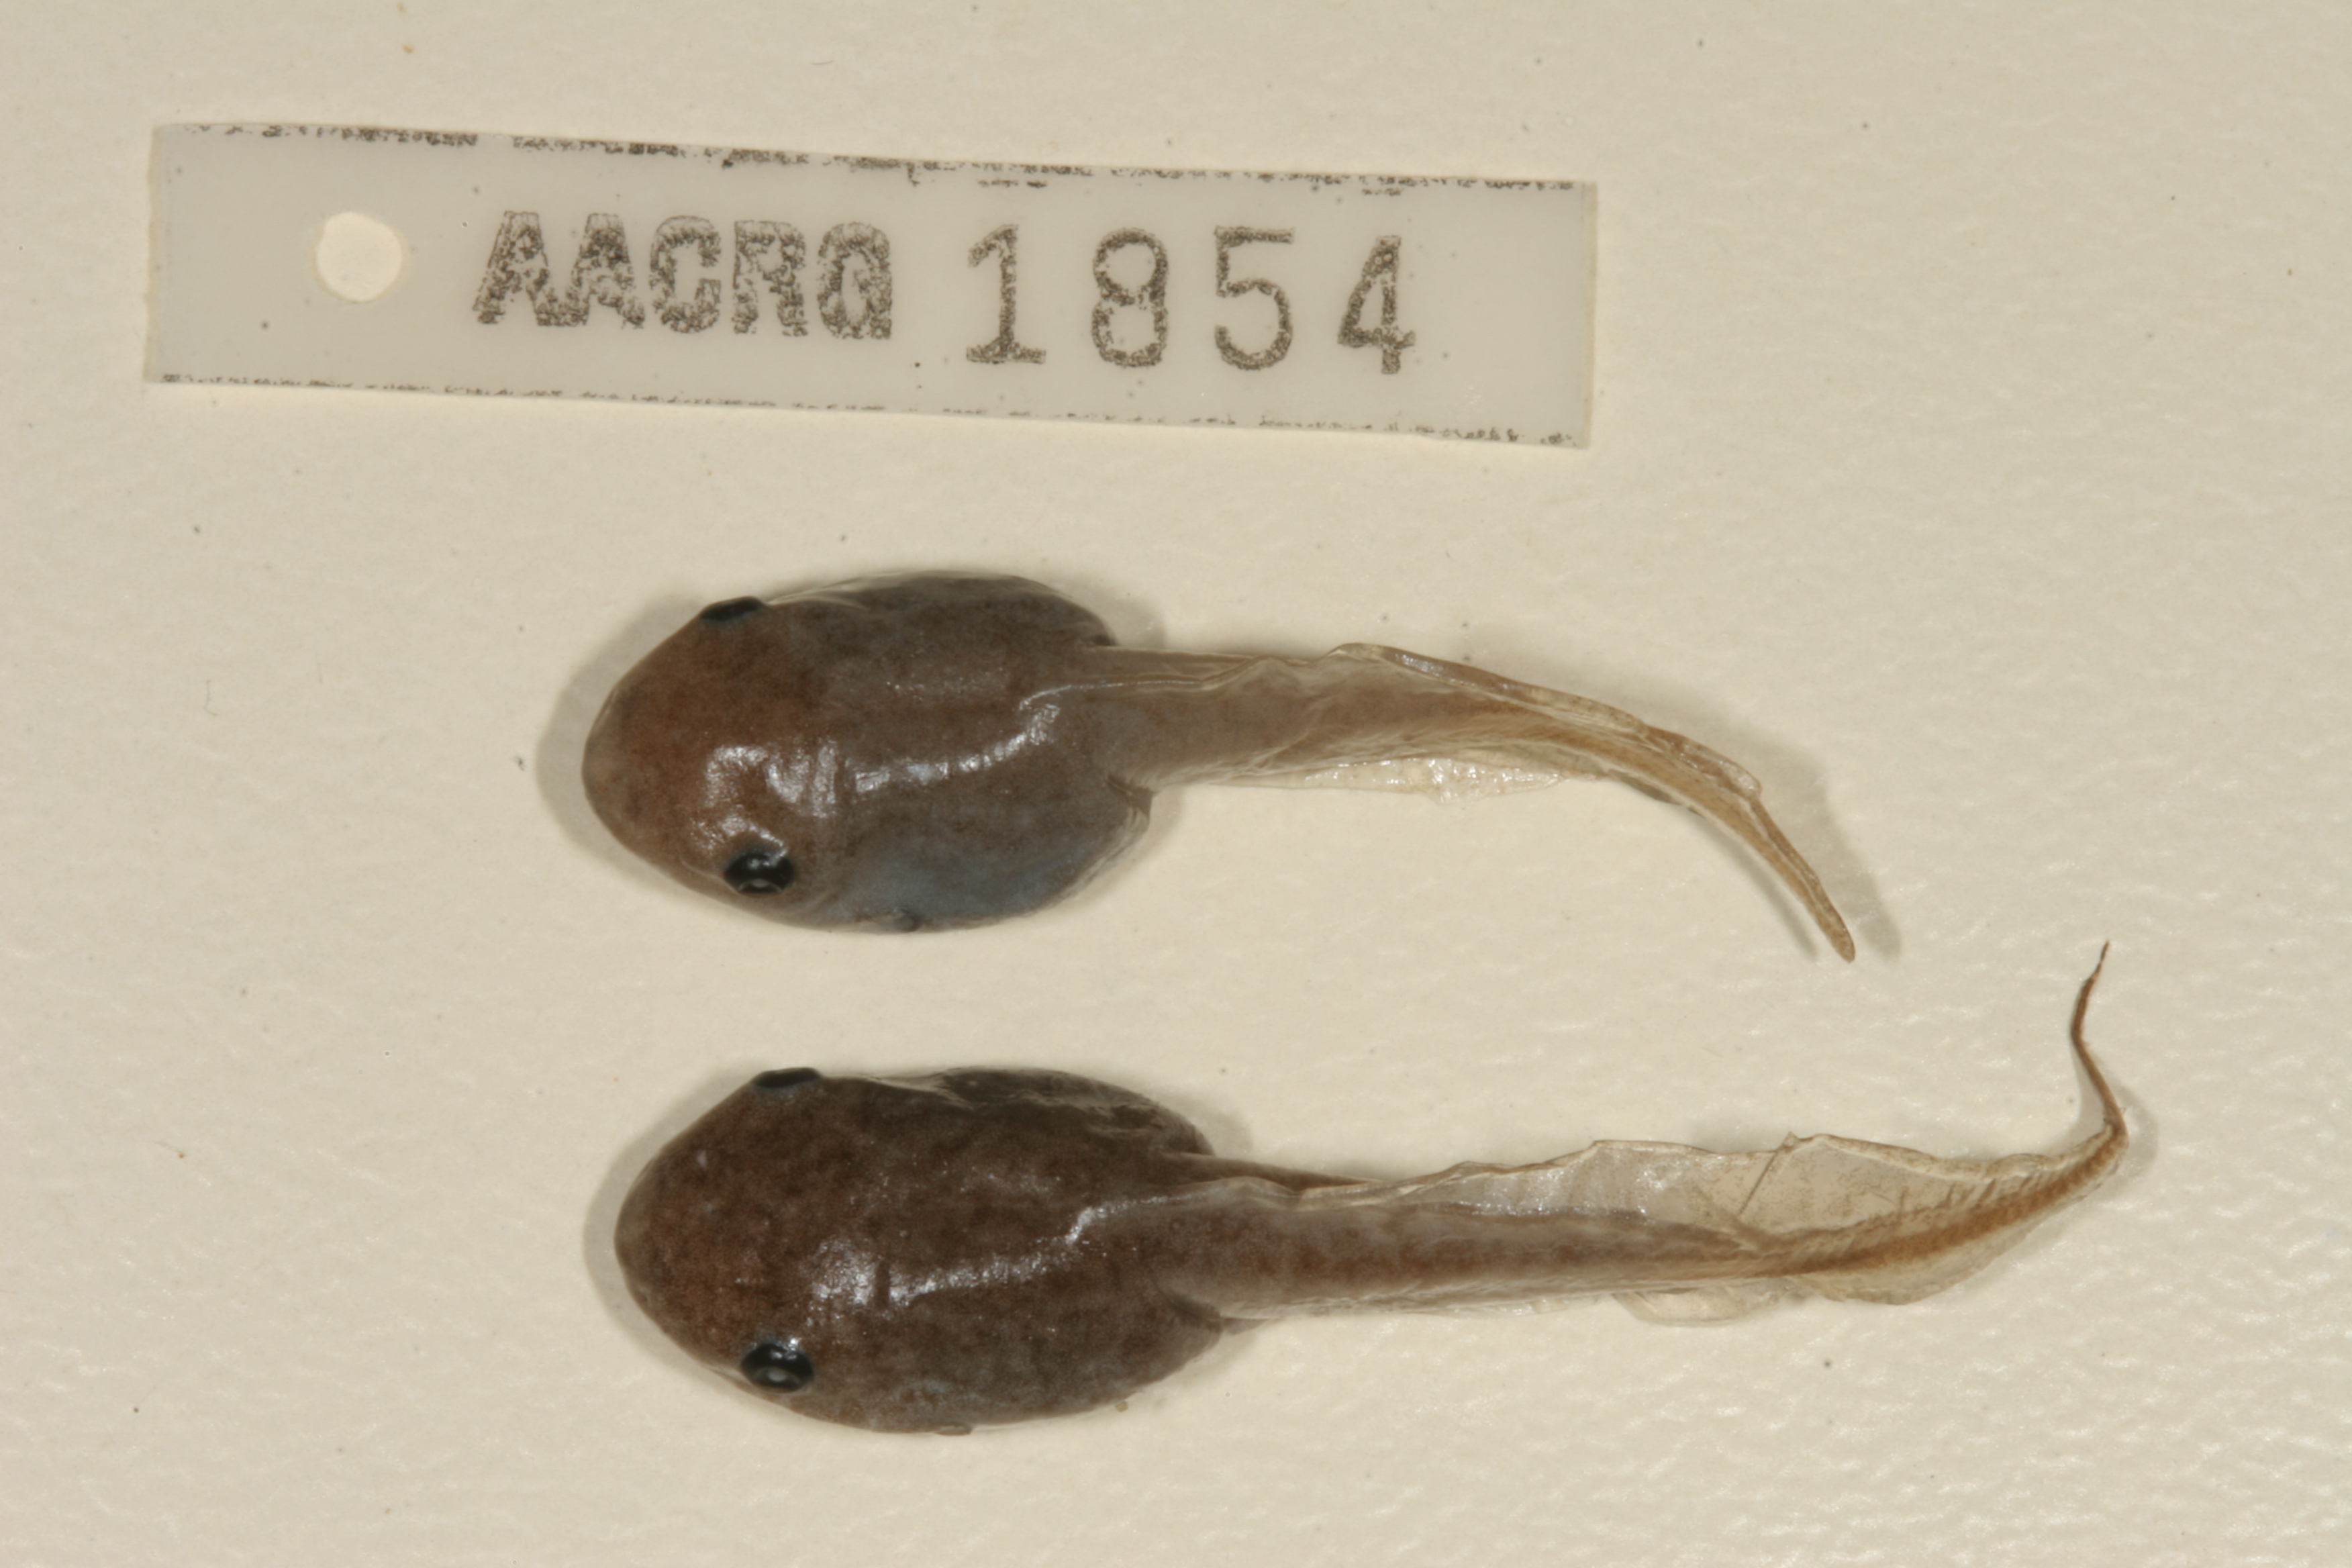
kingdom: Animalia
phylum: Chordata
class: Amphibia
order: Anura
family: Hemisotidae
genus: Hemisus
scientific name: Hemisus marmoratus
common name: Mottled shovel-nosed frog
